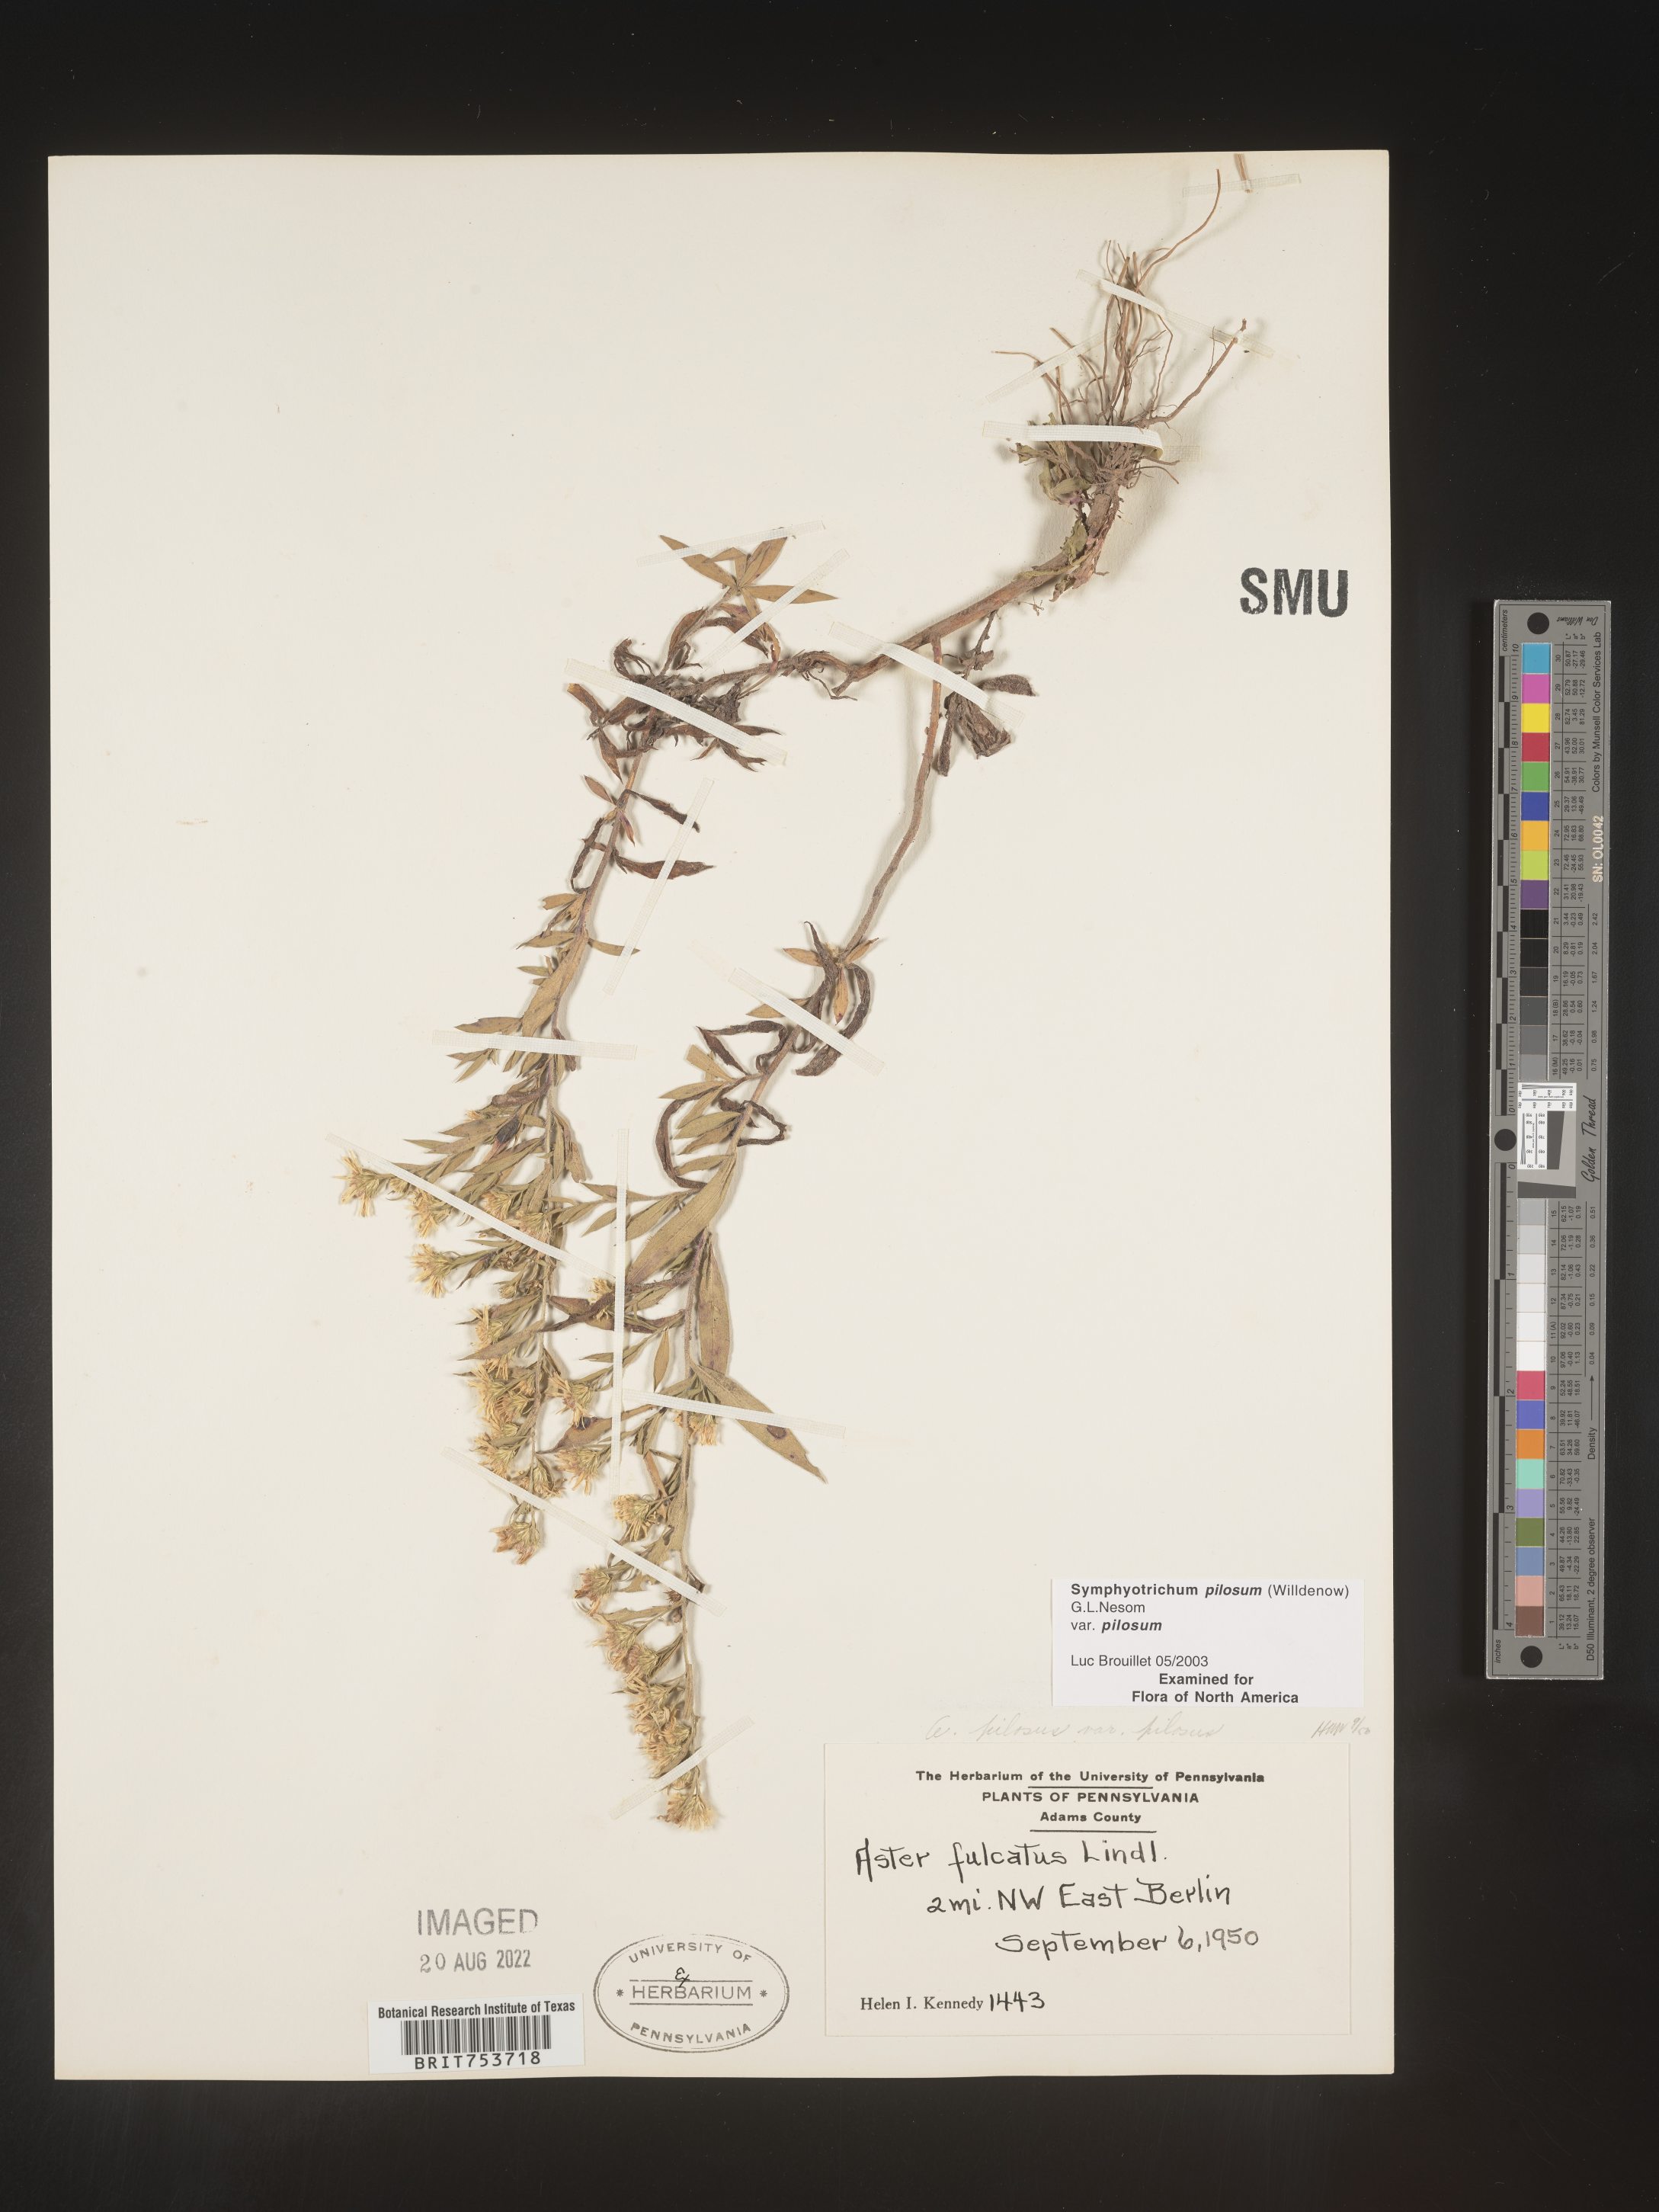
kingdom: Plantae
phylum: Tracheophyta
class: Magnoliopsida
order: Asterales
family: Asteraceae
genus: Symphyotrichum
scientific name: Symphyotrichum pilosum
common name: Awl aster
